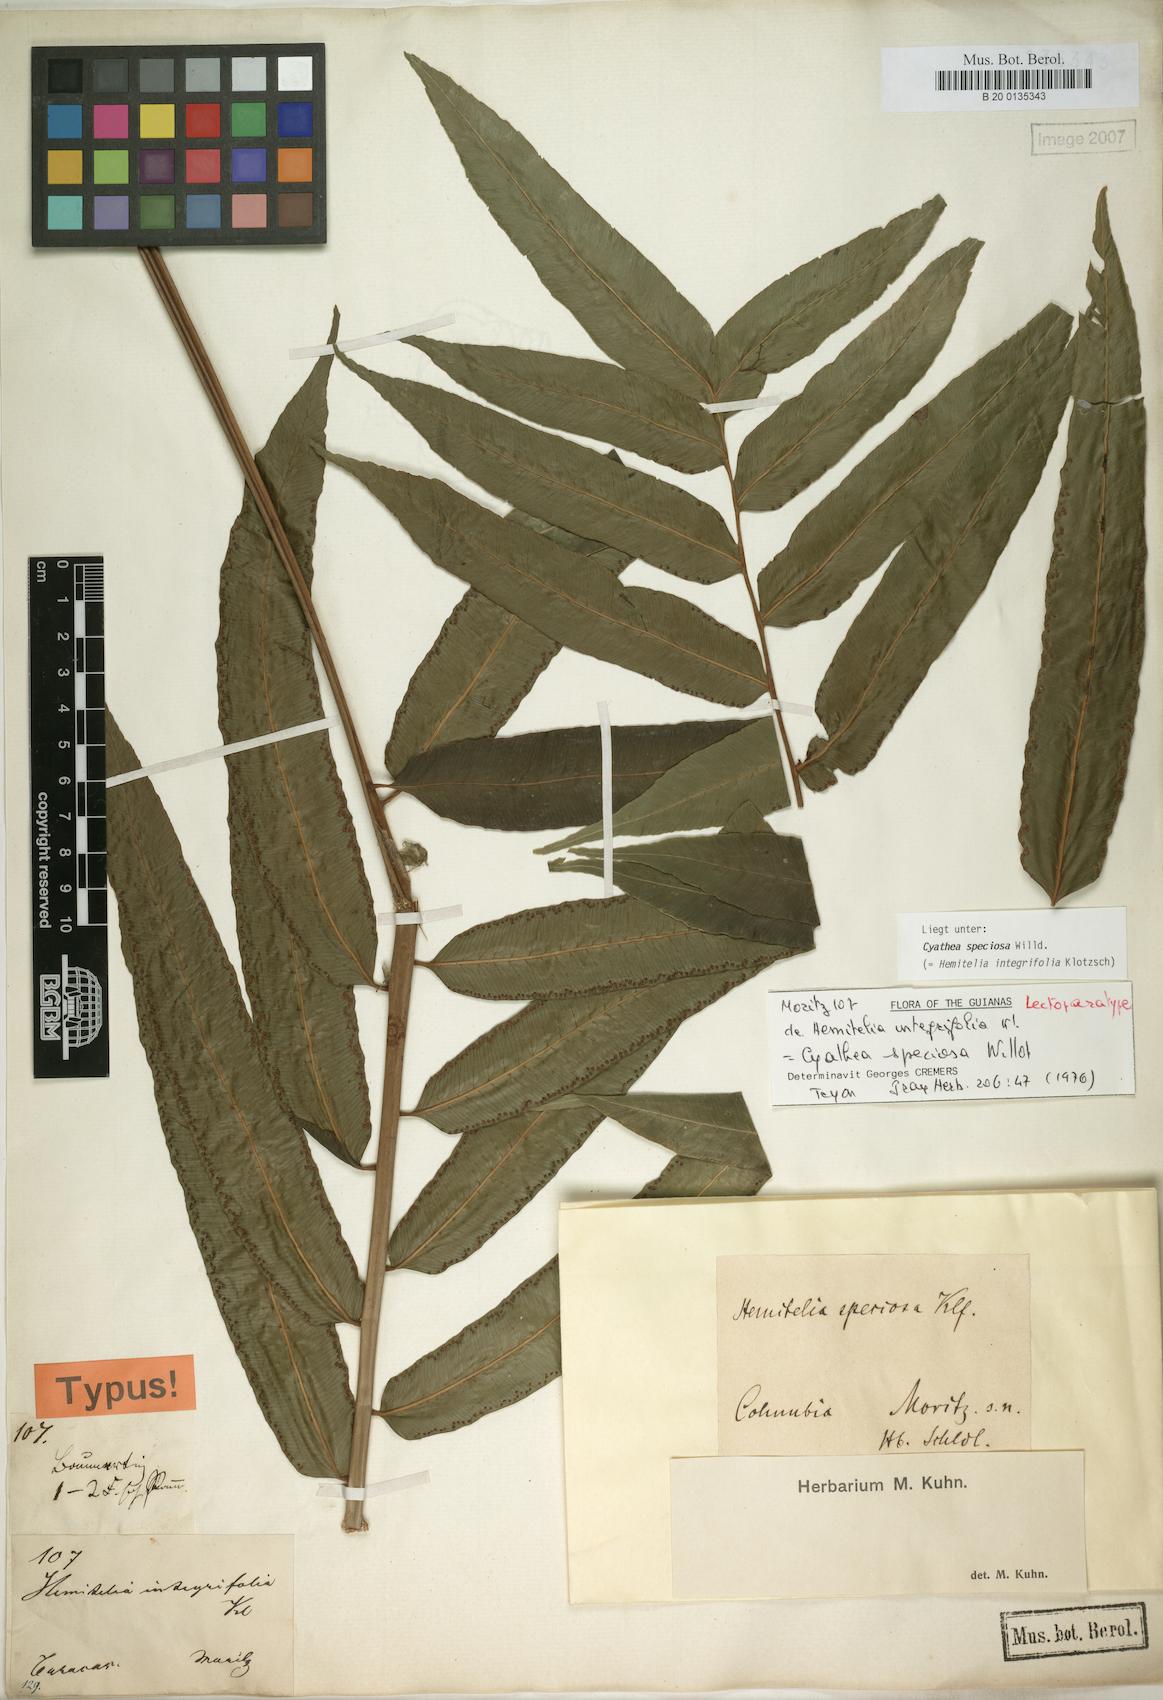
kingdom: Plantae
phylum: Tracheophyta
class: Polypodiopsida
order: Cyatheales
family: Cyatheaceae
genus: Cyathea
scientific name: Cyathea speciosa
